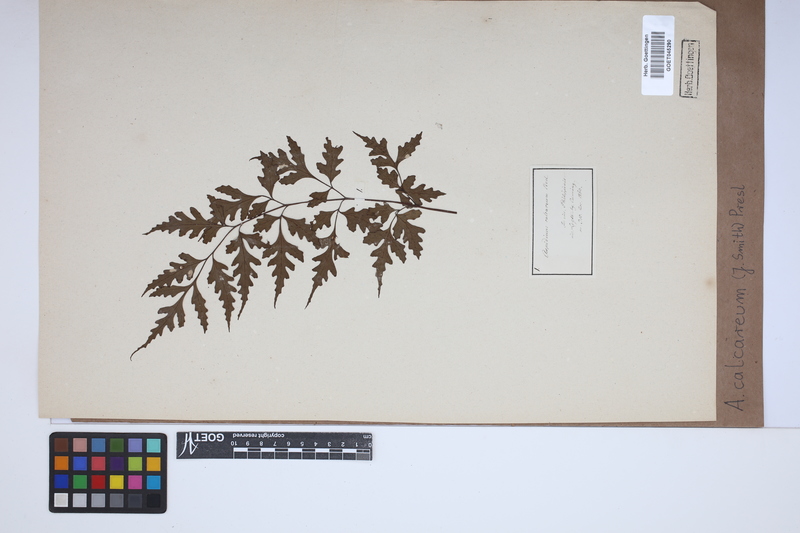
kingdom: Plantae
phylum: Tracheophyta
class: Polypodiopsida
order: Polypodiales
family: Tectariaceae
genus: Tectaria
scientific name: Tectaria calcarea
